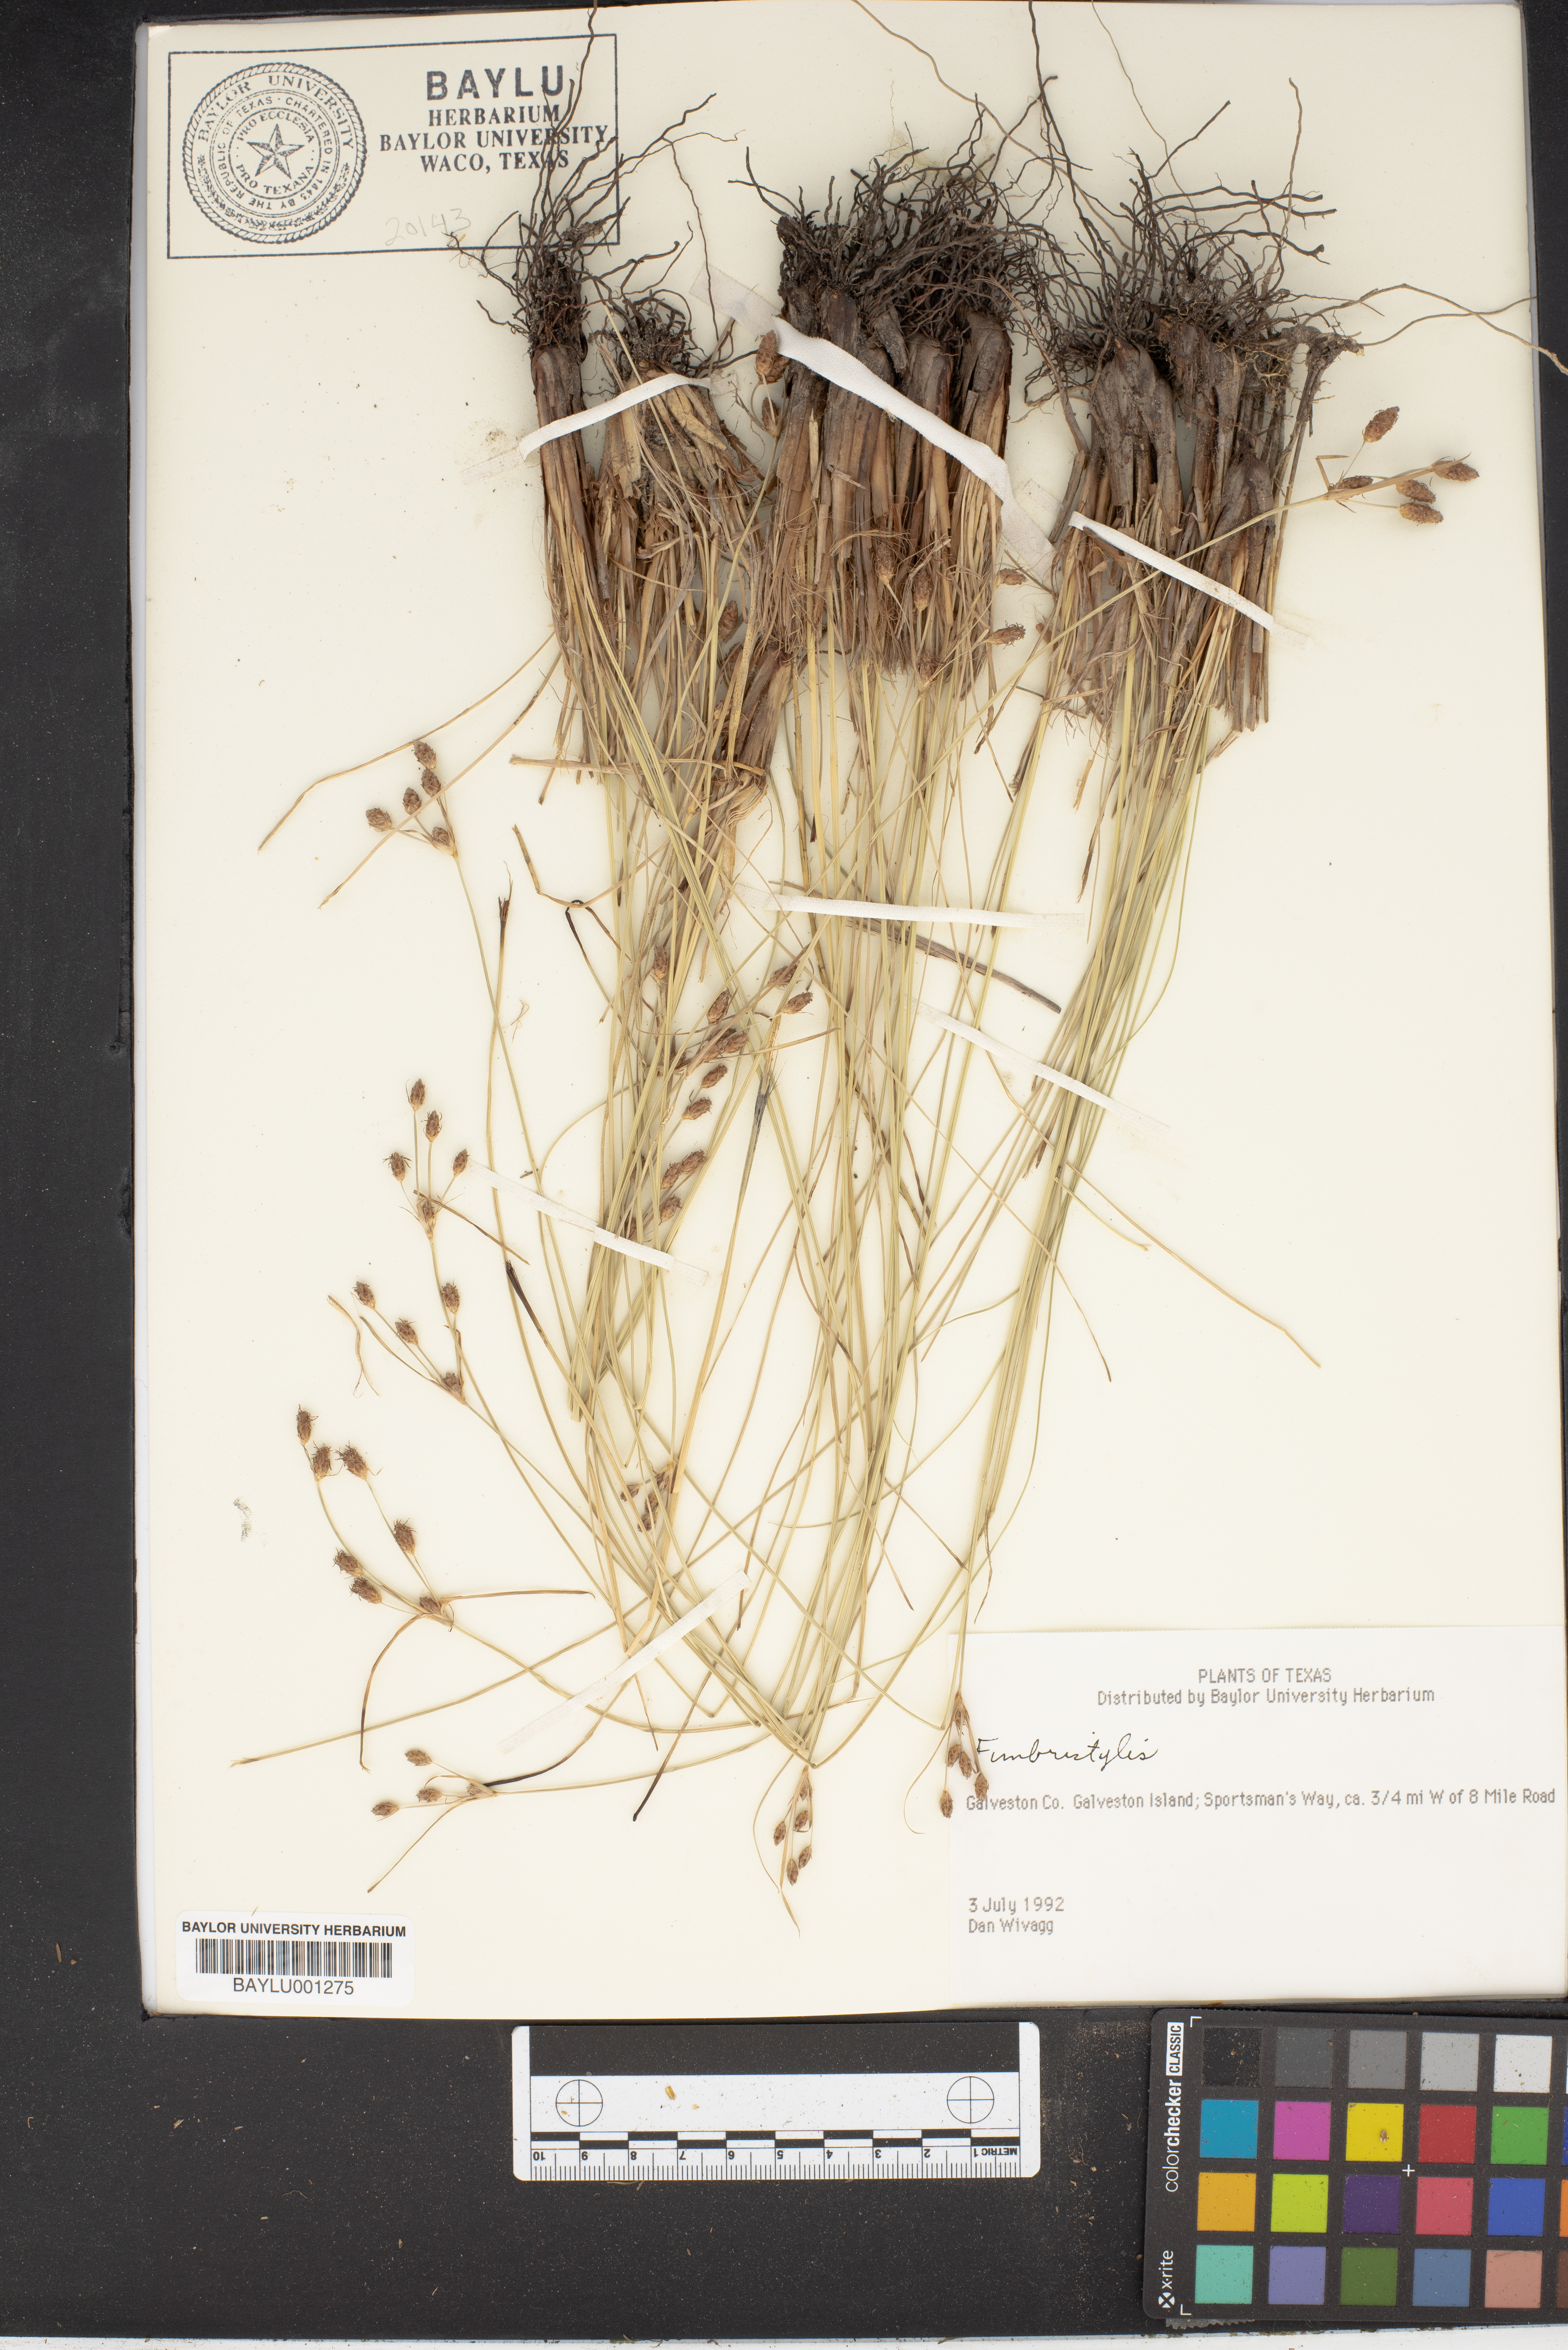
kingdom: Plantae
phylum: Tracheophyta
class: Liliopsida
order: Poales
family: Cyperaceae
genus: Fimbristylis
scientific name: Fimbristylis
